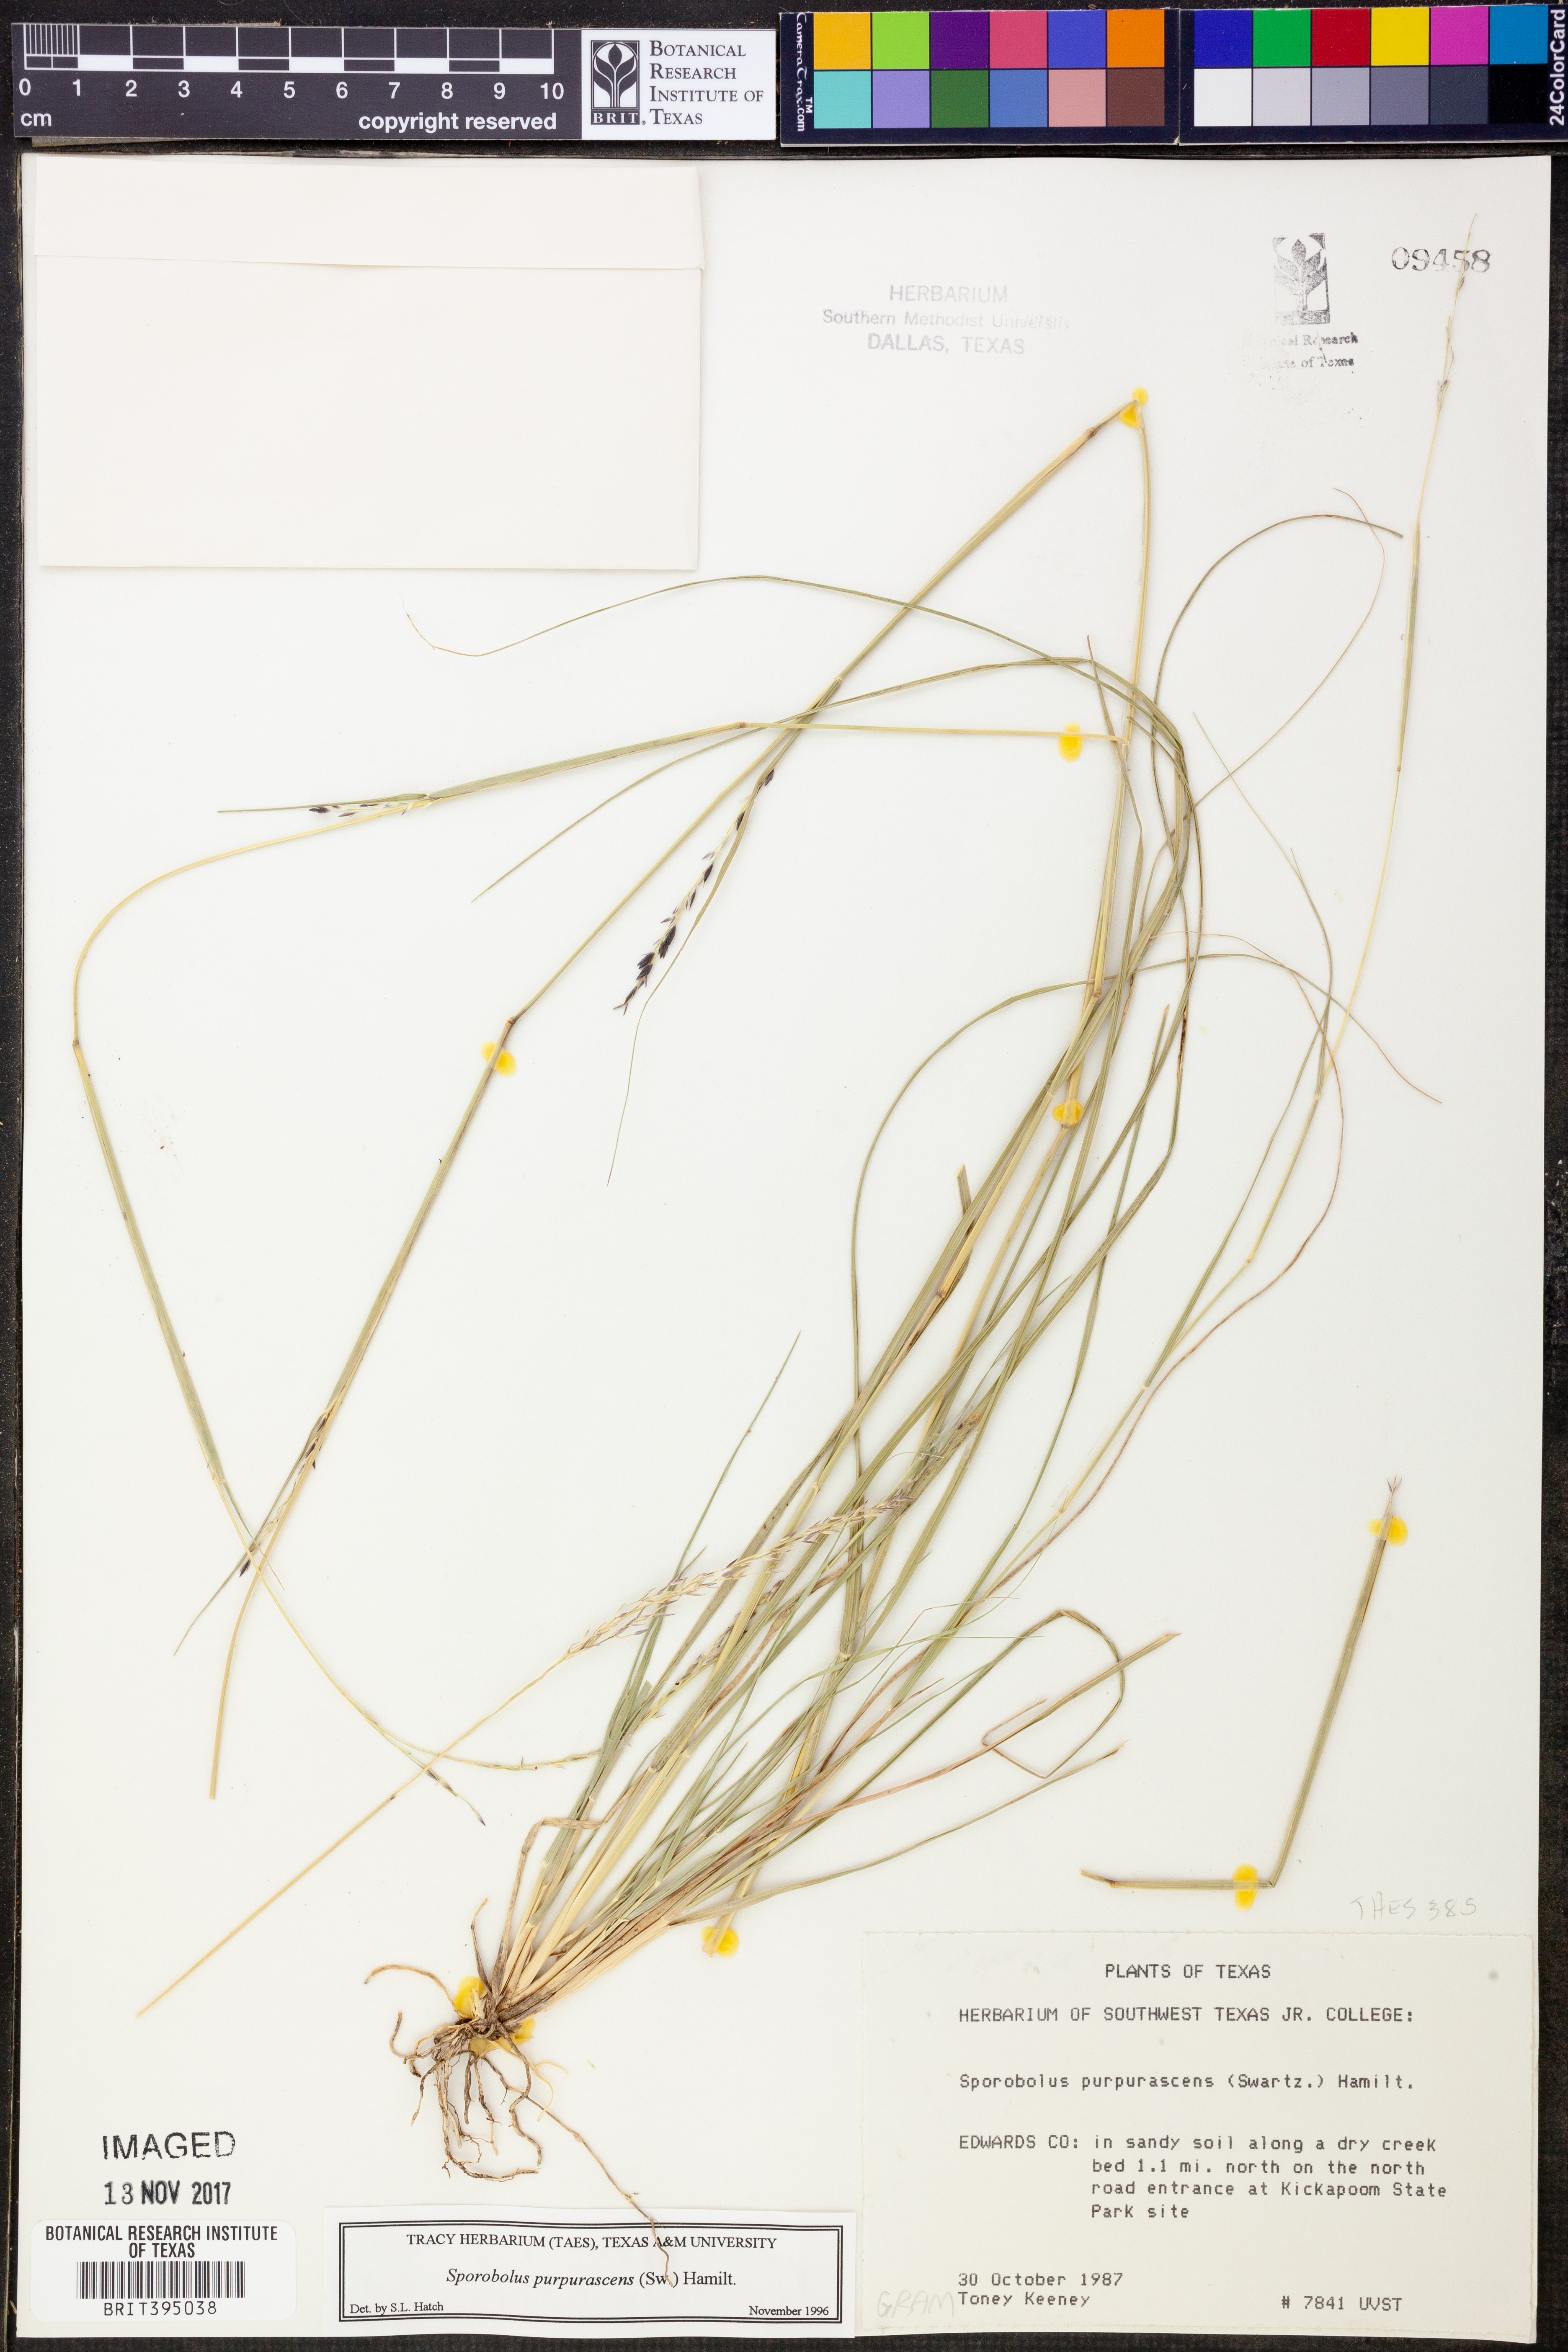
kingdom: Plantae
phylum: Tracheophyta
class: Liliopsida
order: Poales
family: Poaceae
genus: Sporobolus
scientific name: Sporobolus purpurascens
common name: Purple dropseed
